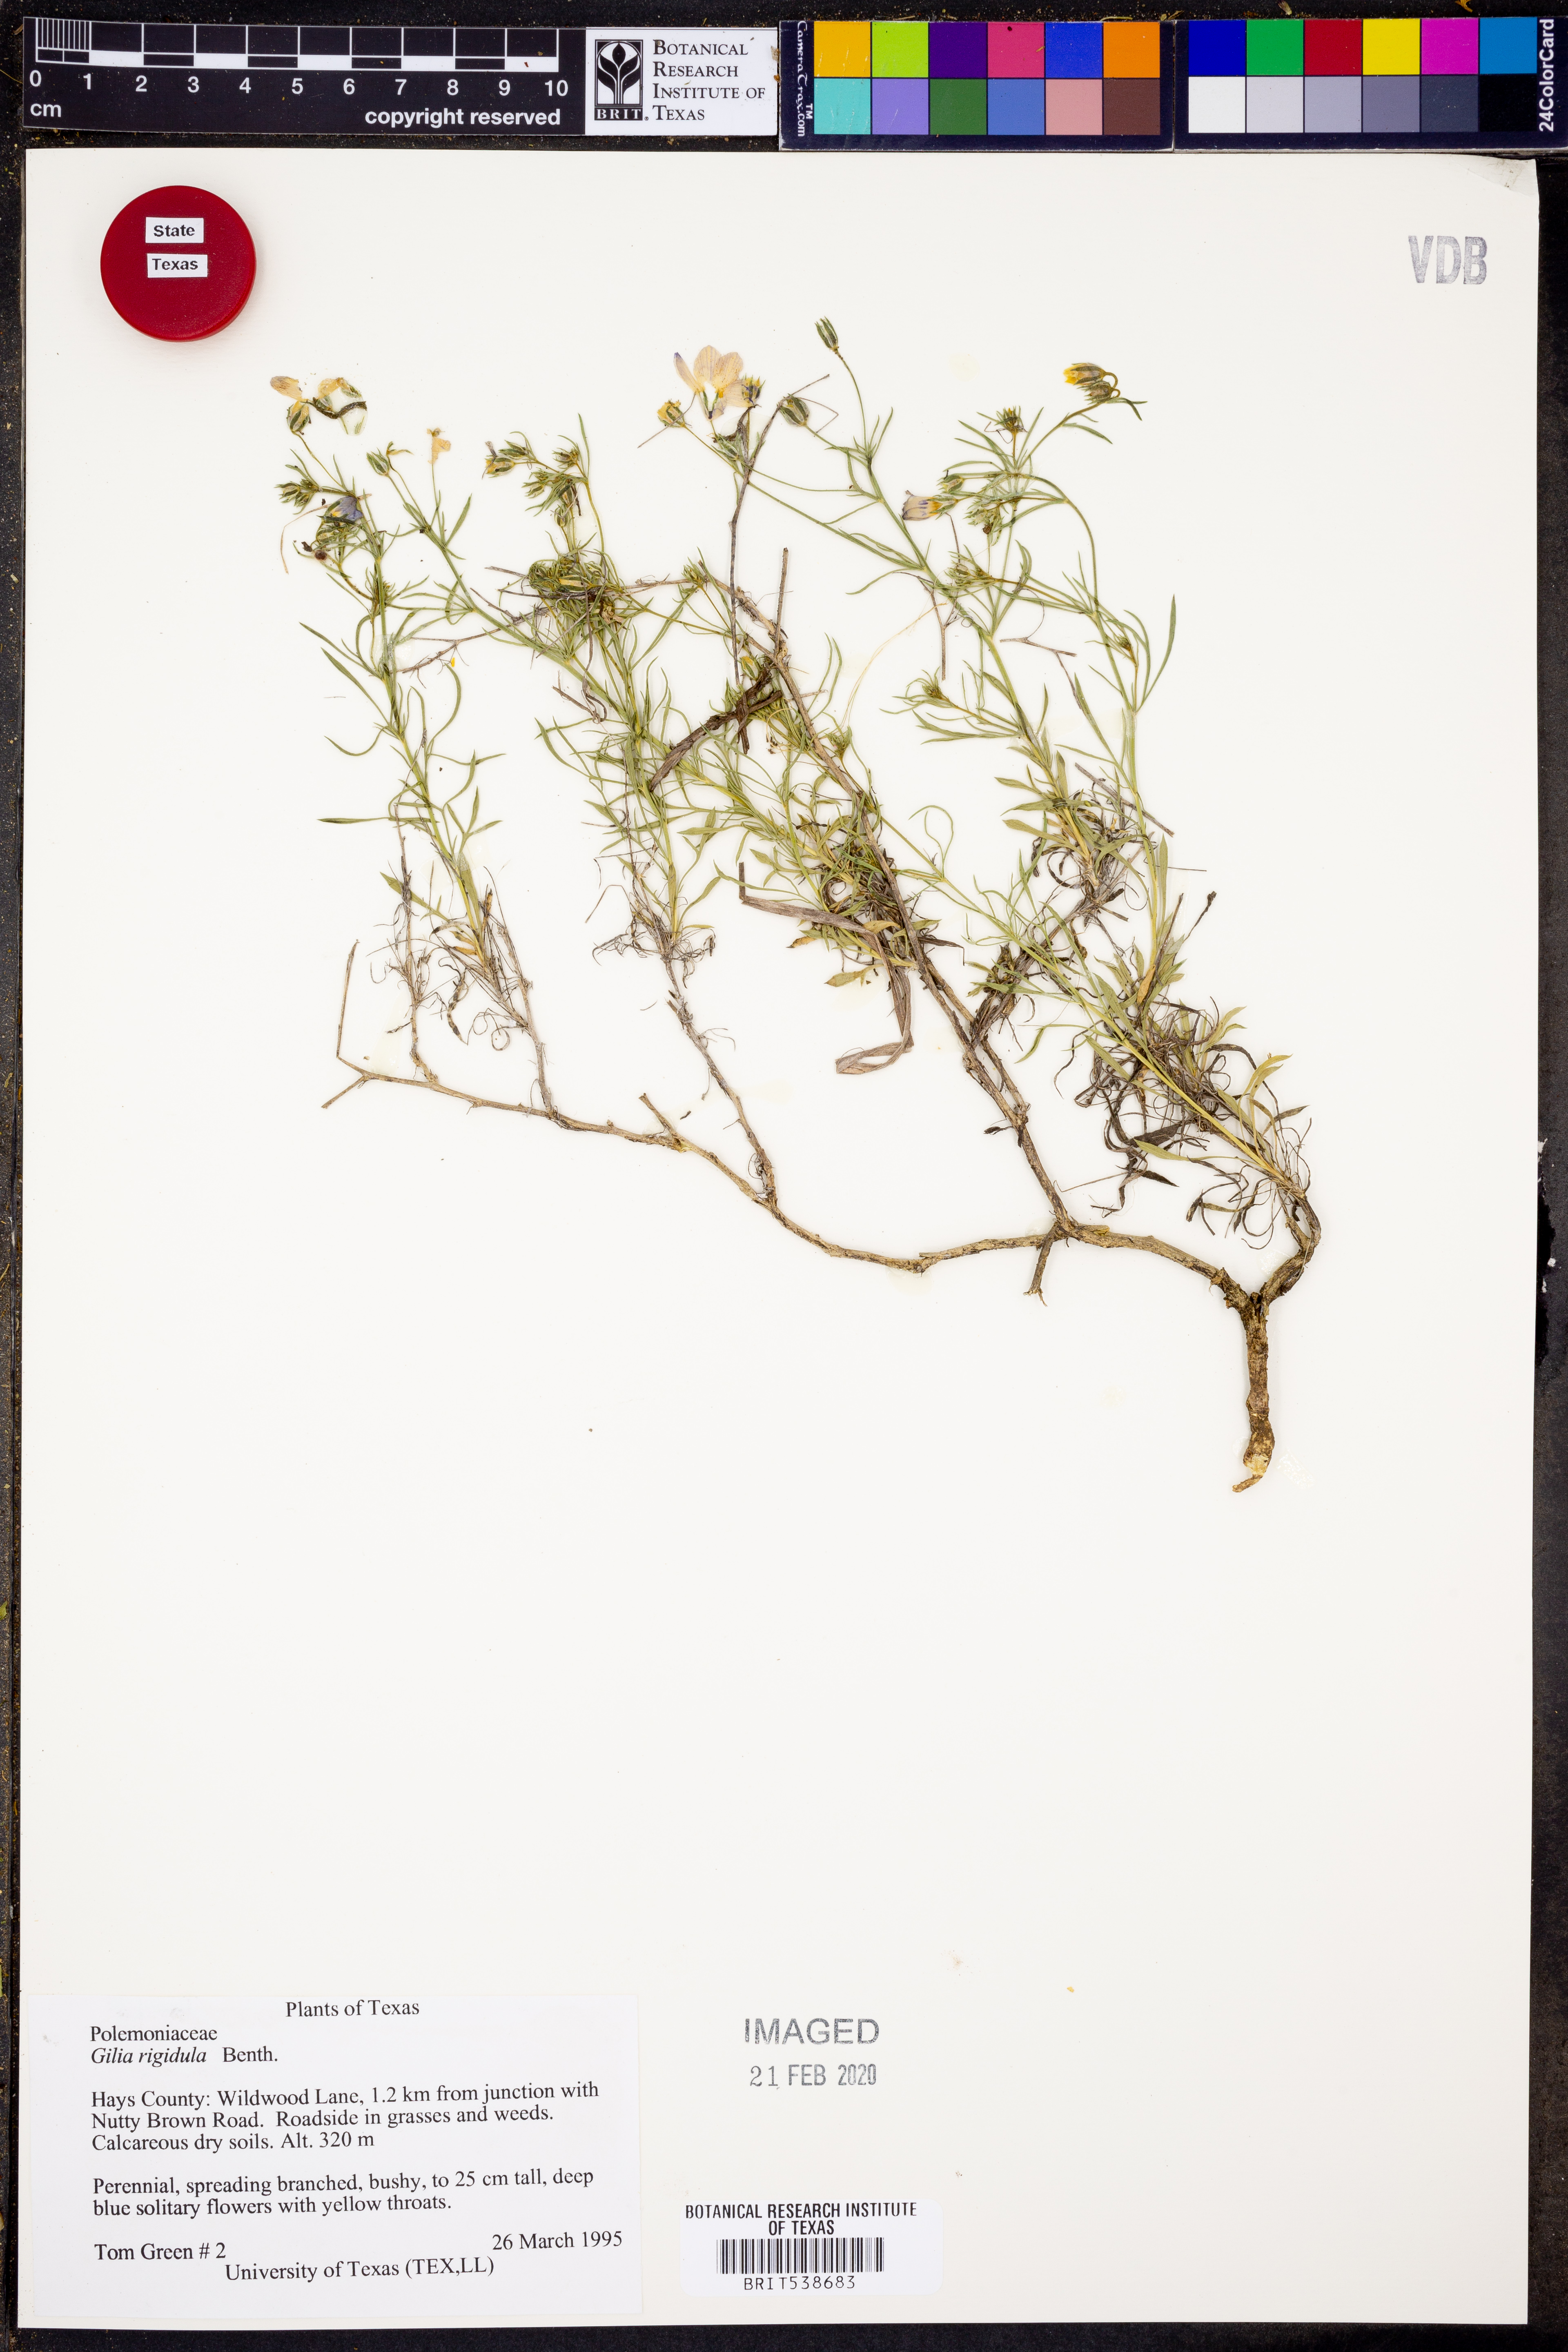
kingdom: Plantae
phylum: Tracheophyta
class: Magnoliopsida
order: Ericales
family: Polemoniaceae
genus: Giliastrum
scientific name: Giliastrum rigidulum
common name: Bluebowls
